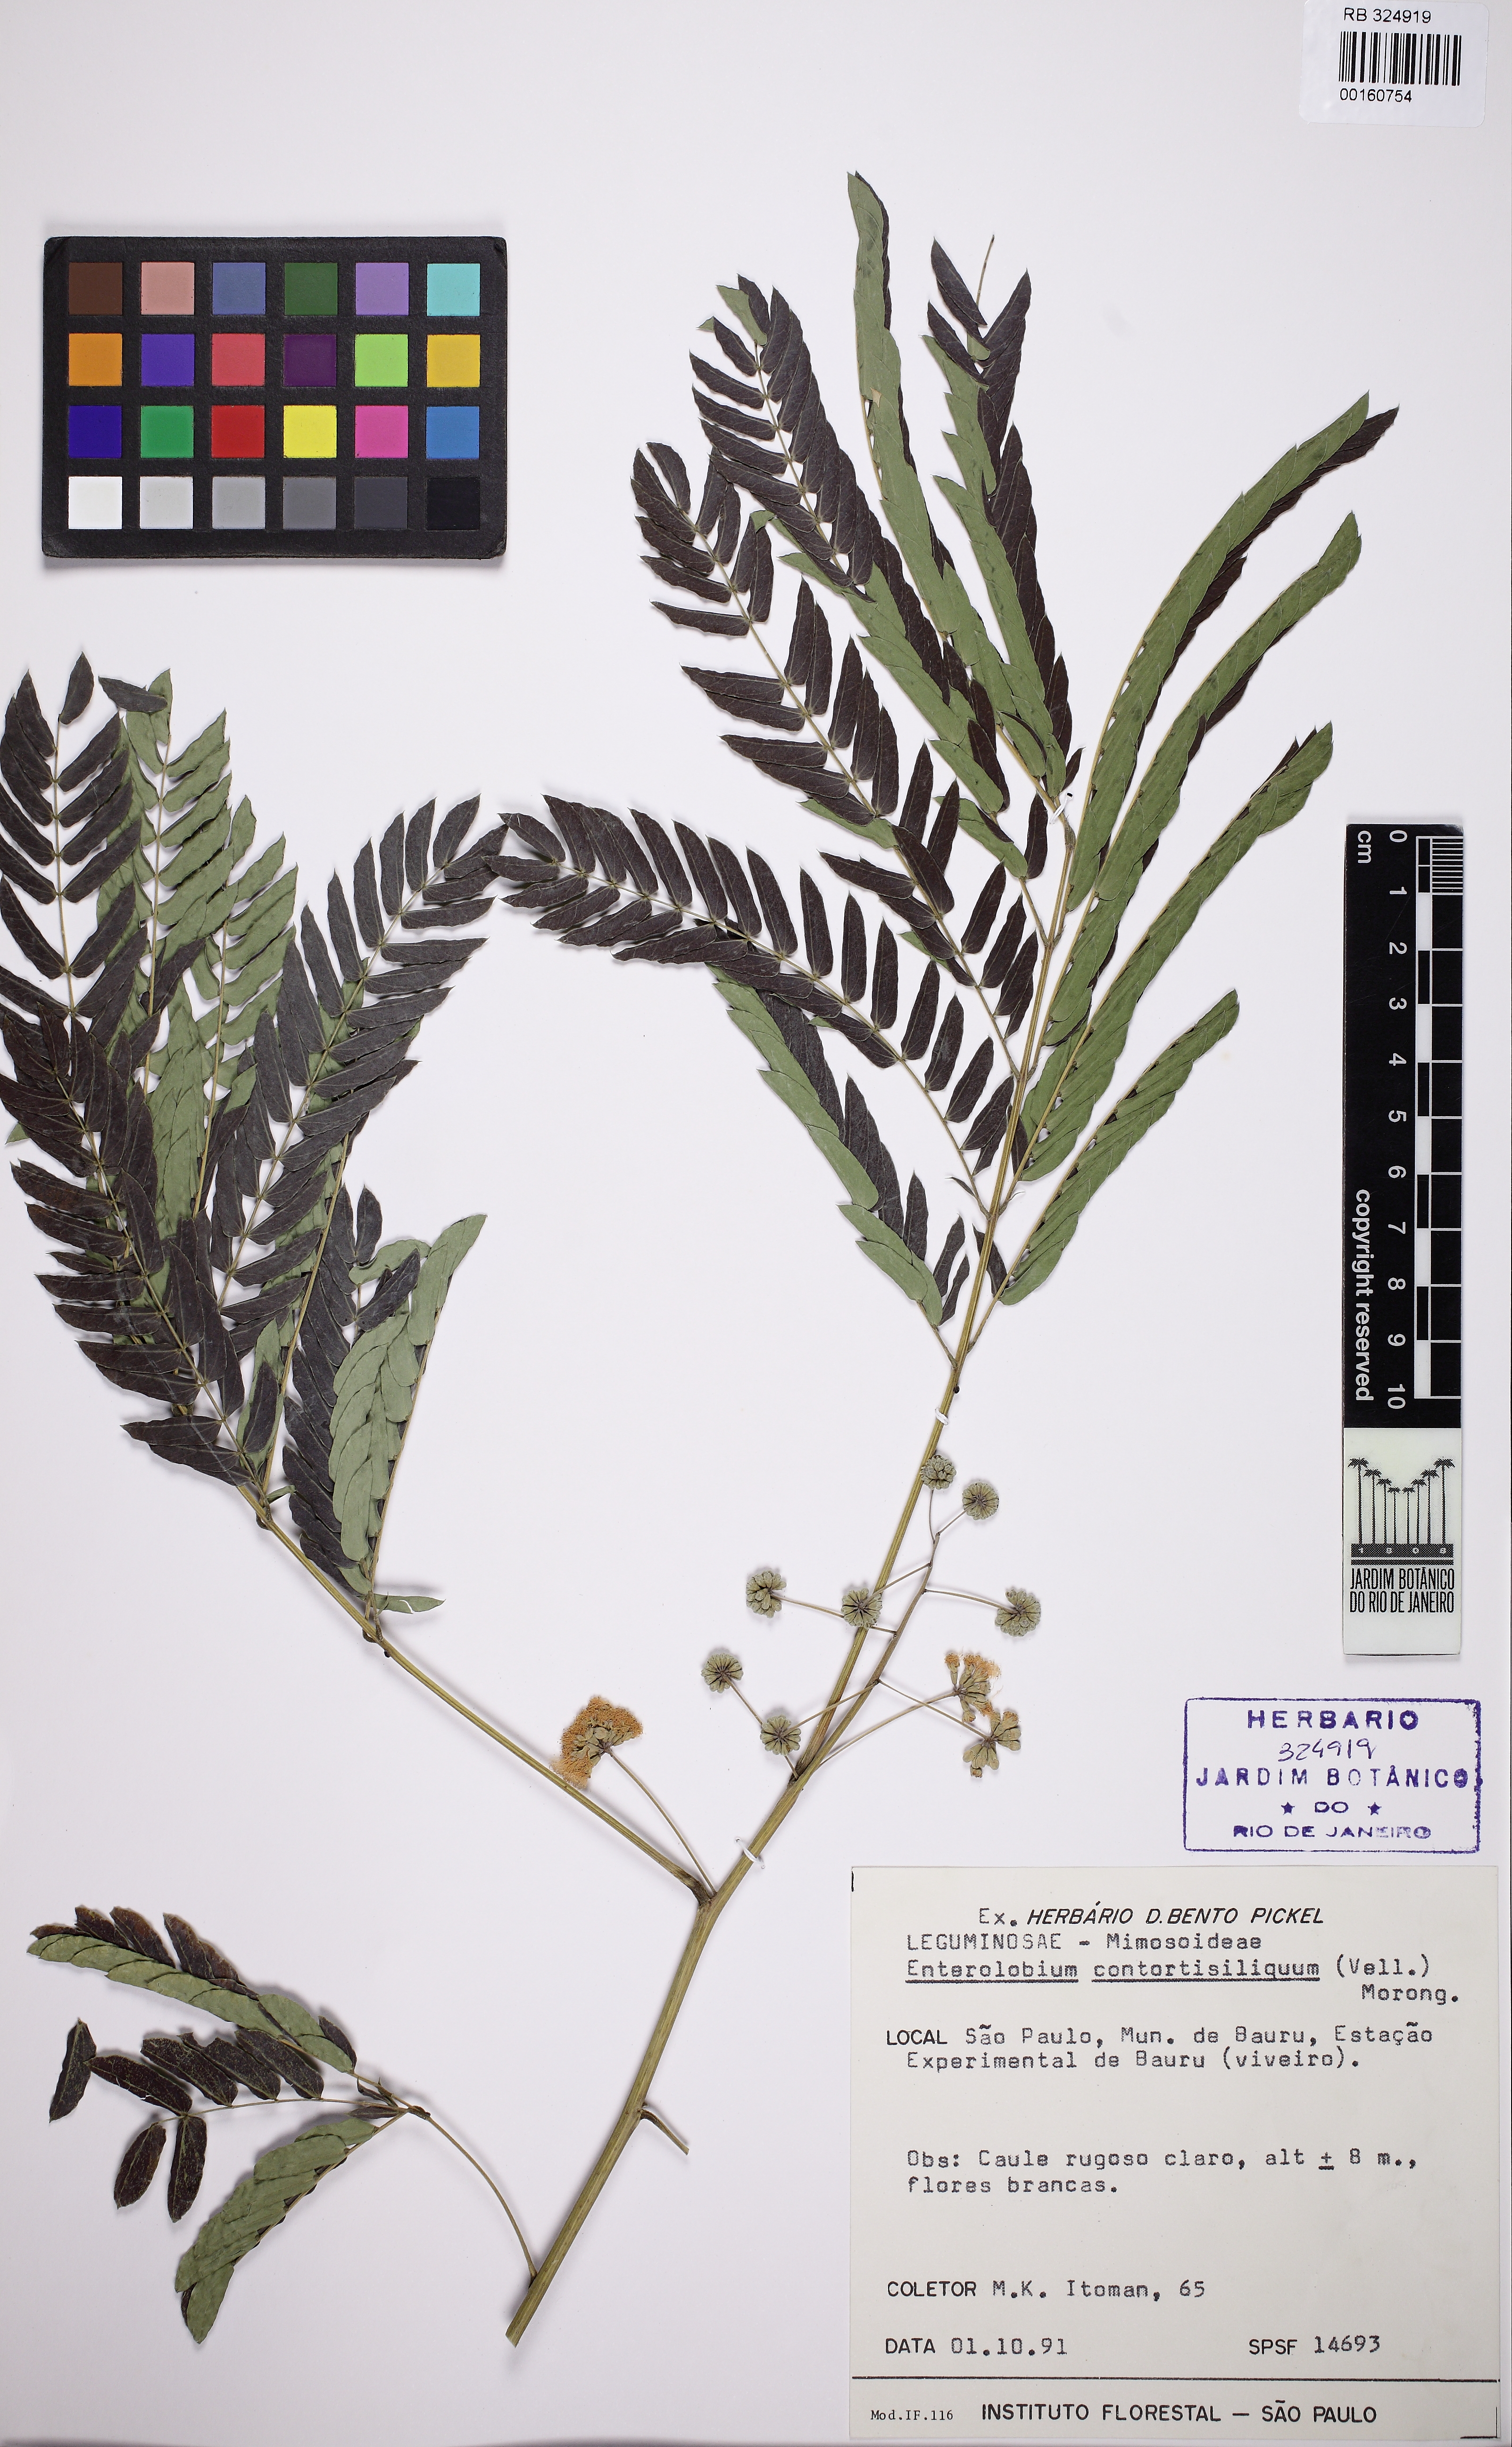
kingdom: Plantae
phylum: Tracheophyta
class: Magnoliopsida
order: Fabales
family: Fabaceae
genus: Enterolobium
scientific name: Enterolobium contortisiliquum
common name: Pacara earpod tree
